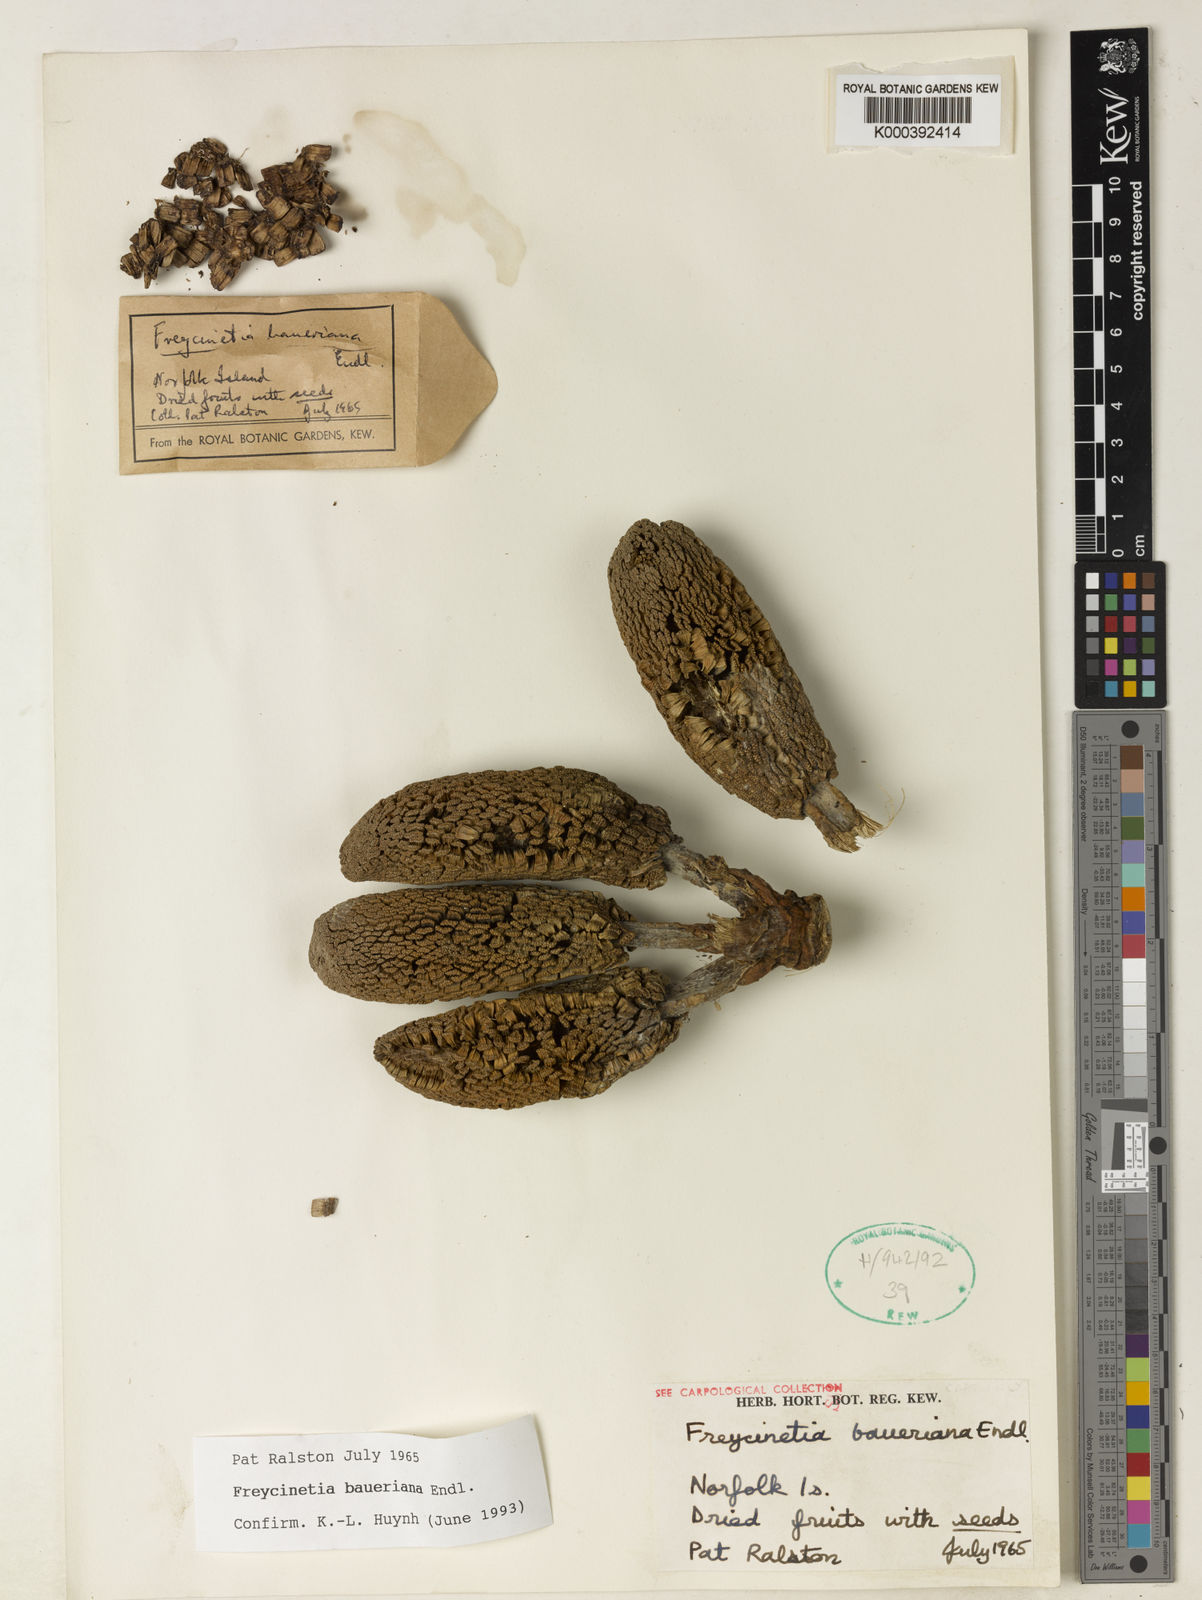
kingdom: Plantae
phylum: Tracheophyta
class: Liliopsida
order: Pandanales
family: Pandanaceae
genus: Freycinetia
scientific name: Freycinetia baueriana
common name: Mountain rush
